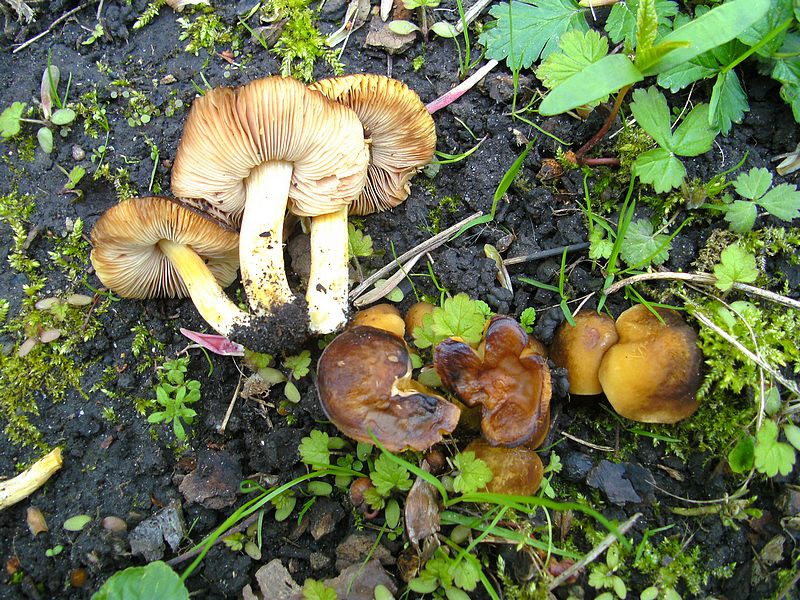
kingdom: Fungi
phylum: Basidiomycota
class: Agaricomycetes
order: Agaricales
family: Pluteaceae
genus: Pluteus
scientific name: Pluteus romellii
